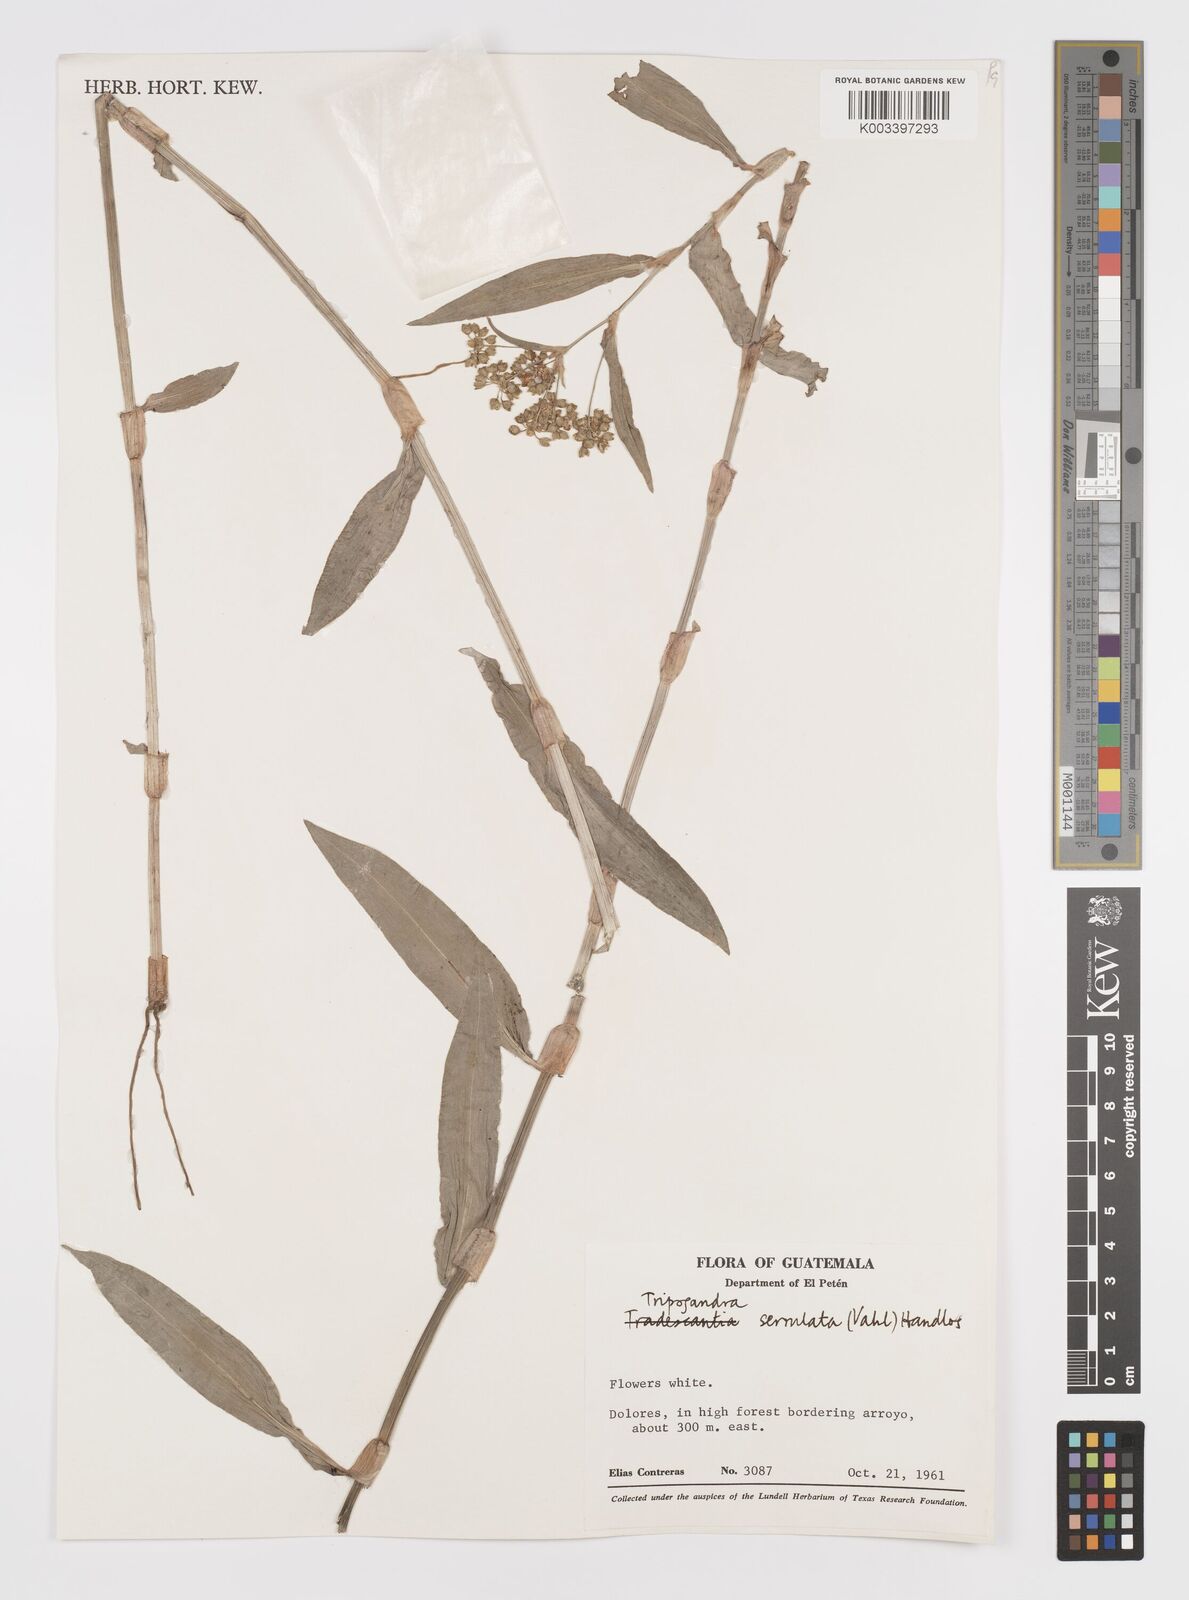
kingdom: Plantae
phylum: Tracheophyta
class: Liliopsida
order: Commelinales
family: Commelinaceae
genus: Callisia
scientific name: Callisia serrulata
